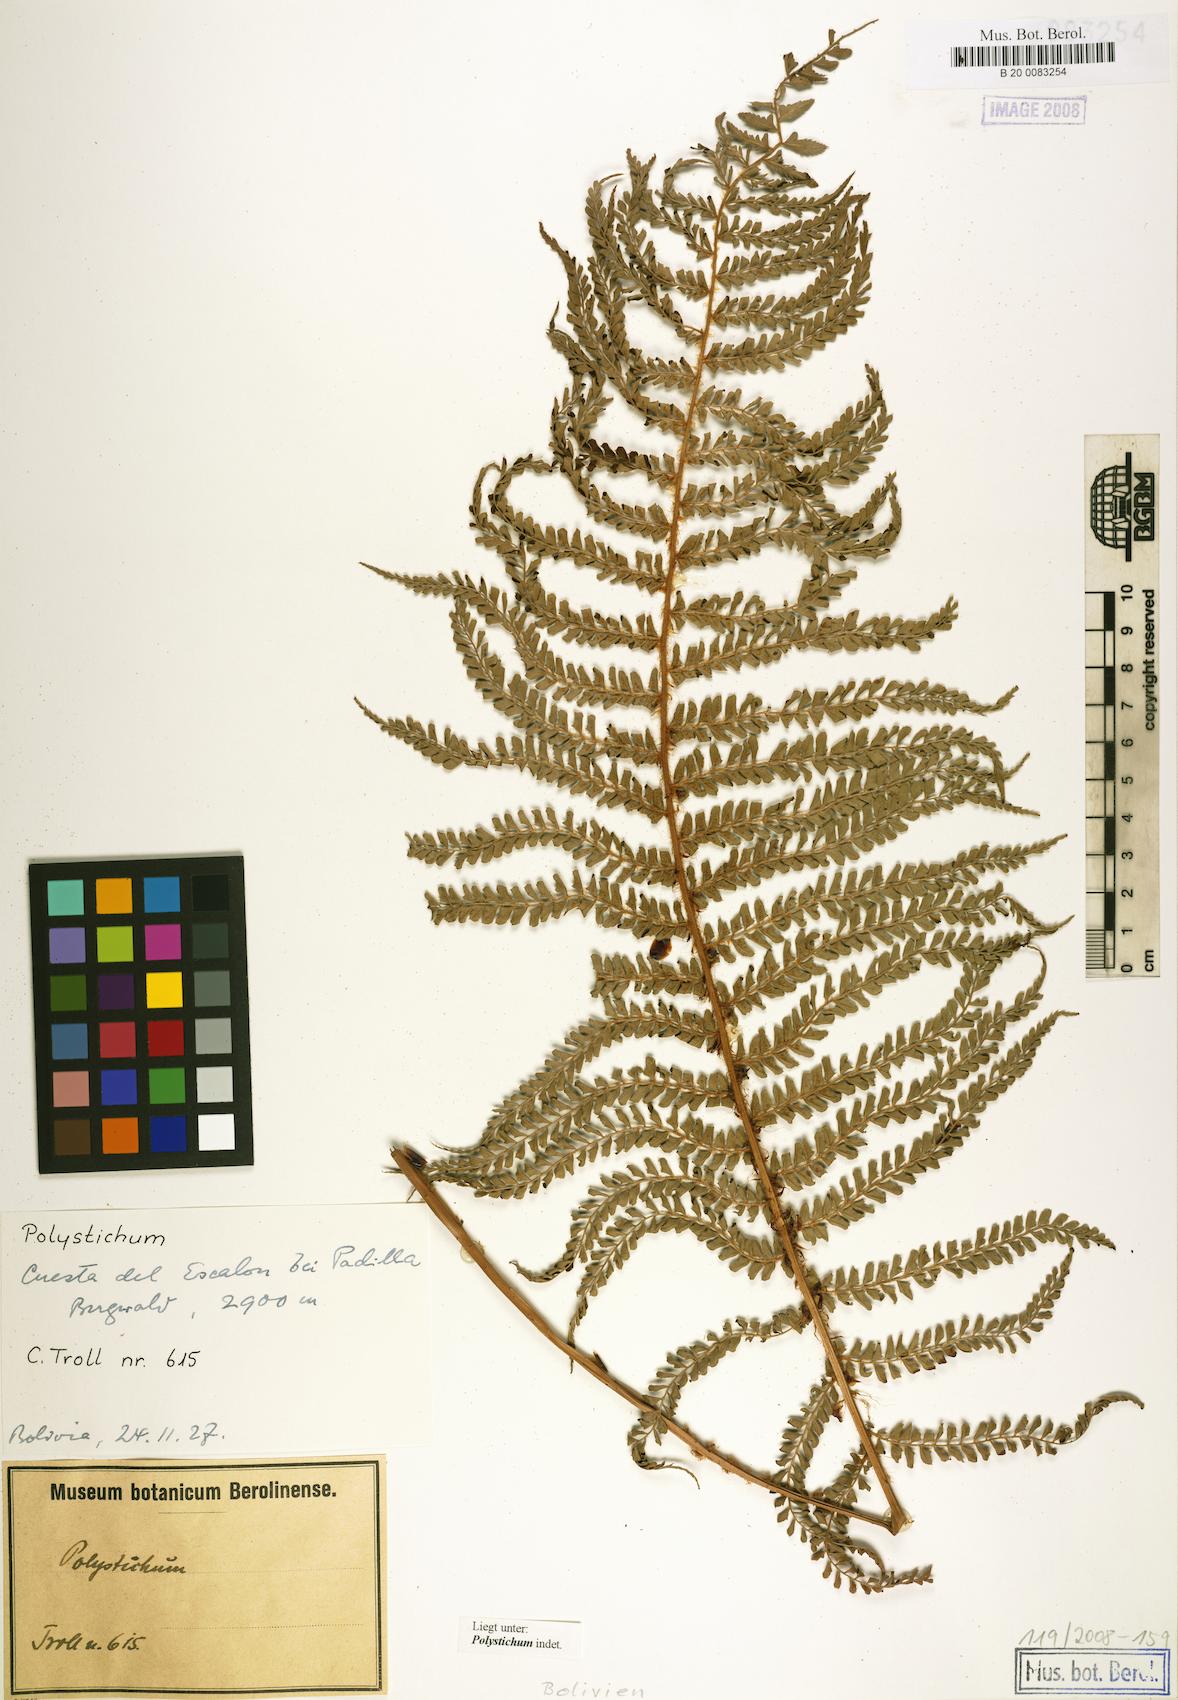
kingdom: Plantae
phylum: Tracheophyta
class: Polypodiopsida
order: Polypodiales
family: Dryopteridaceae
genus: Polystichum
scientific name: Polystichum
